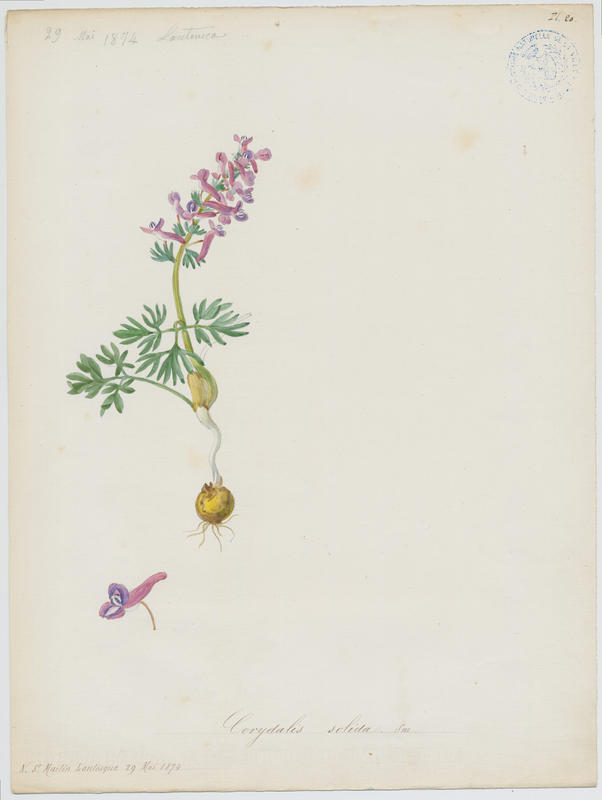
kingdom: Plantae
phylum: Tracheophyta
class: Magnoliopsida
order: Ranunculales
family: Papaveraceae
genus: Corydalis
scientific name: Corydalis solida
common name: Bird-in-a-bush
